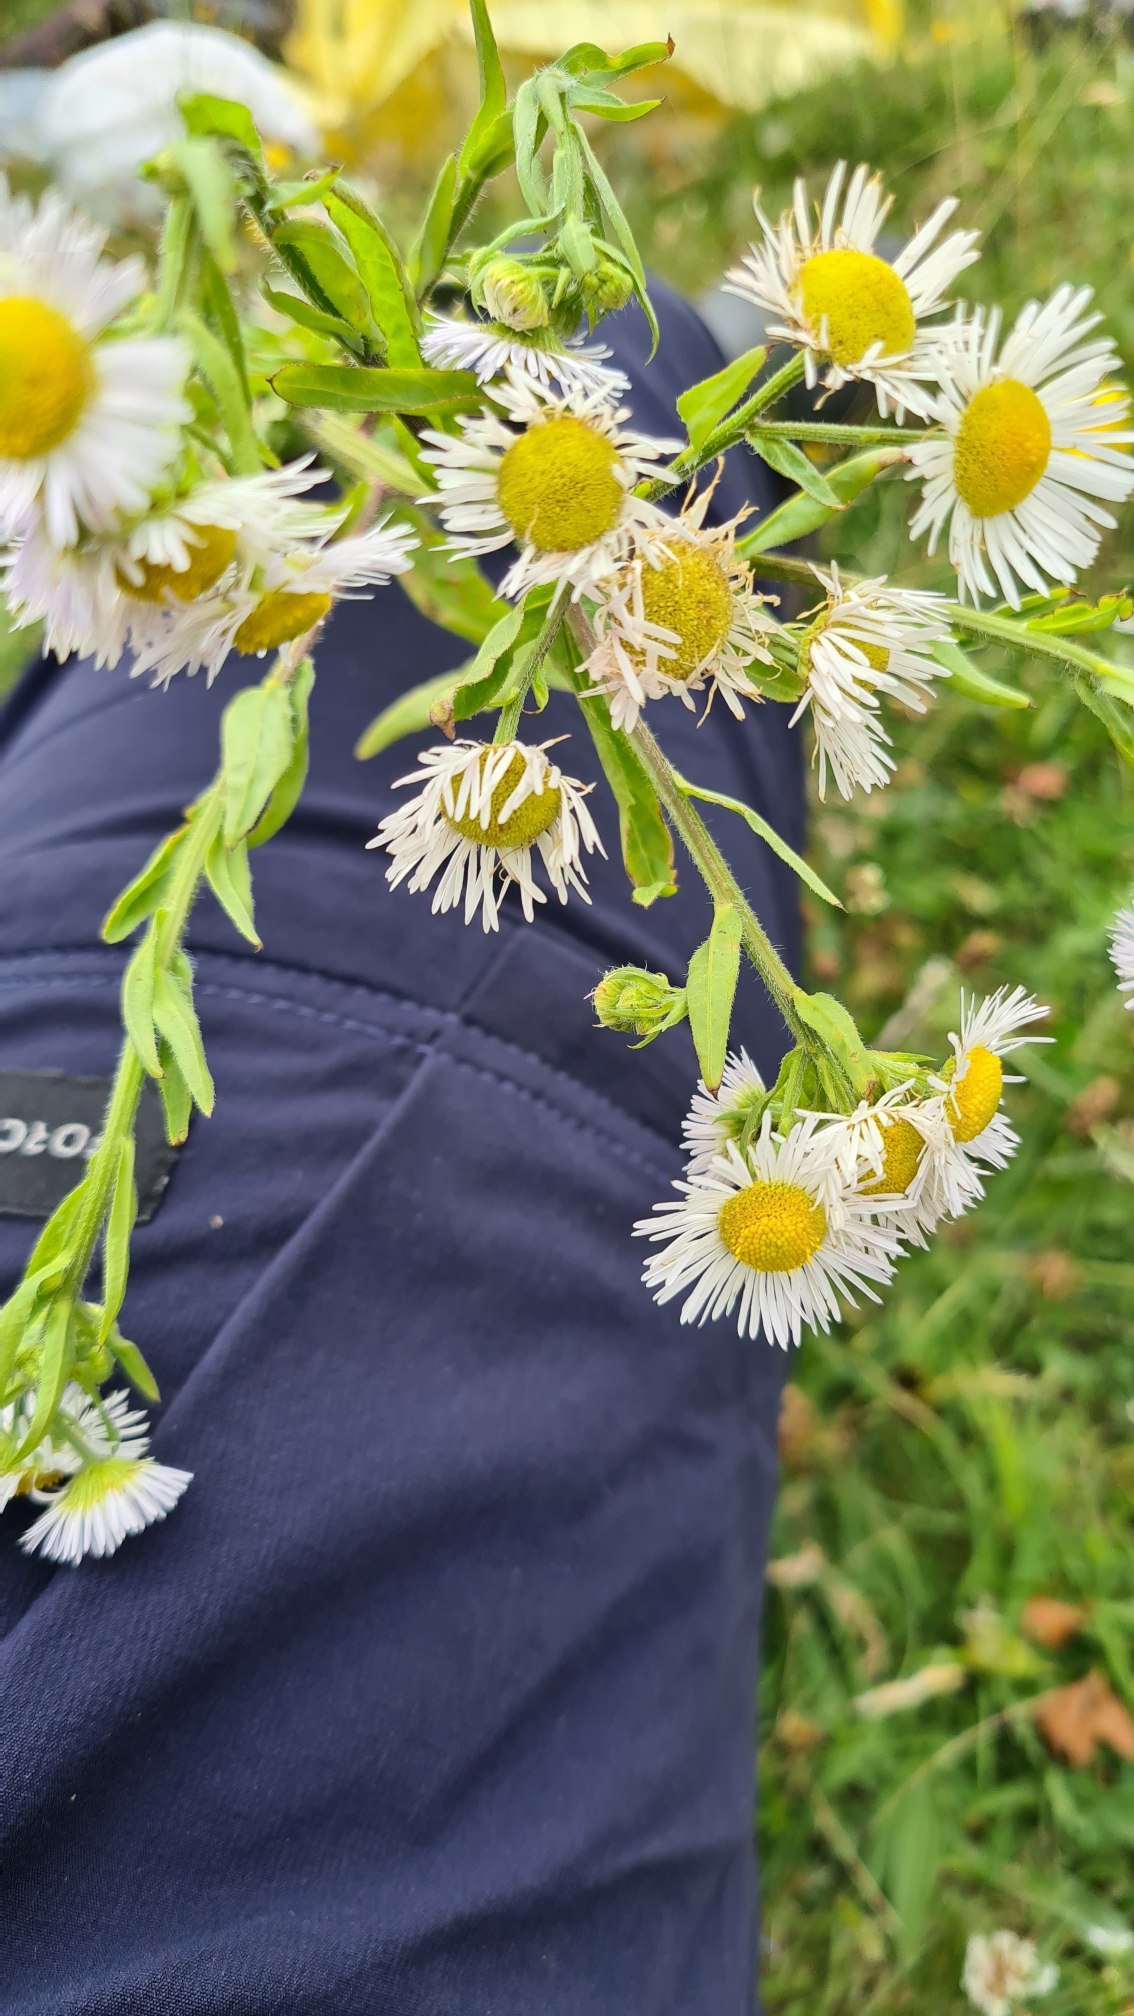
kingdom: Plantae
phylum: Tracheophyta
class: Magnoliopsida
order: Asterales
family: Asteraceae
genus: Erigeron
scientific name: Erigeron annuus
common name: Smalstråle
